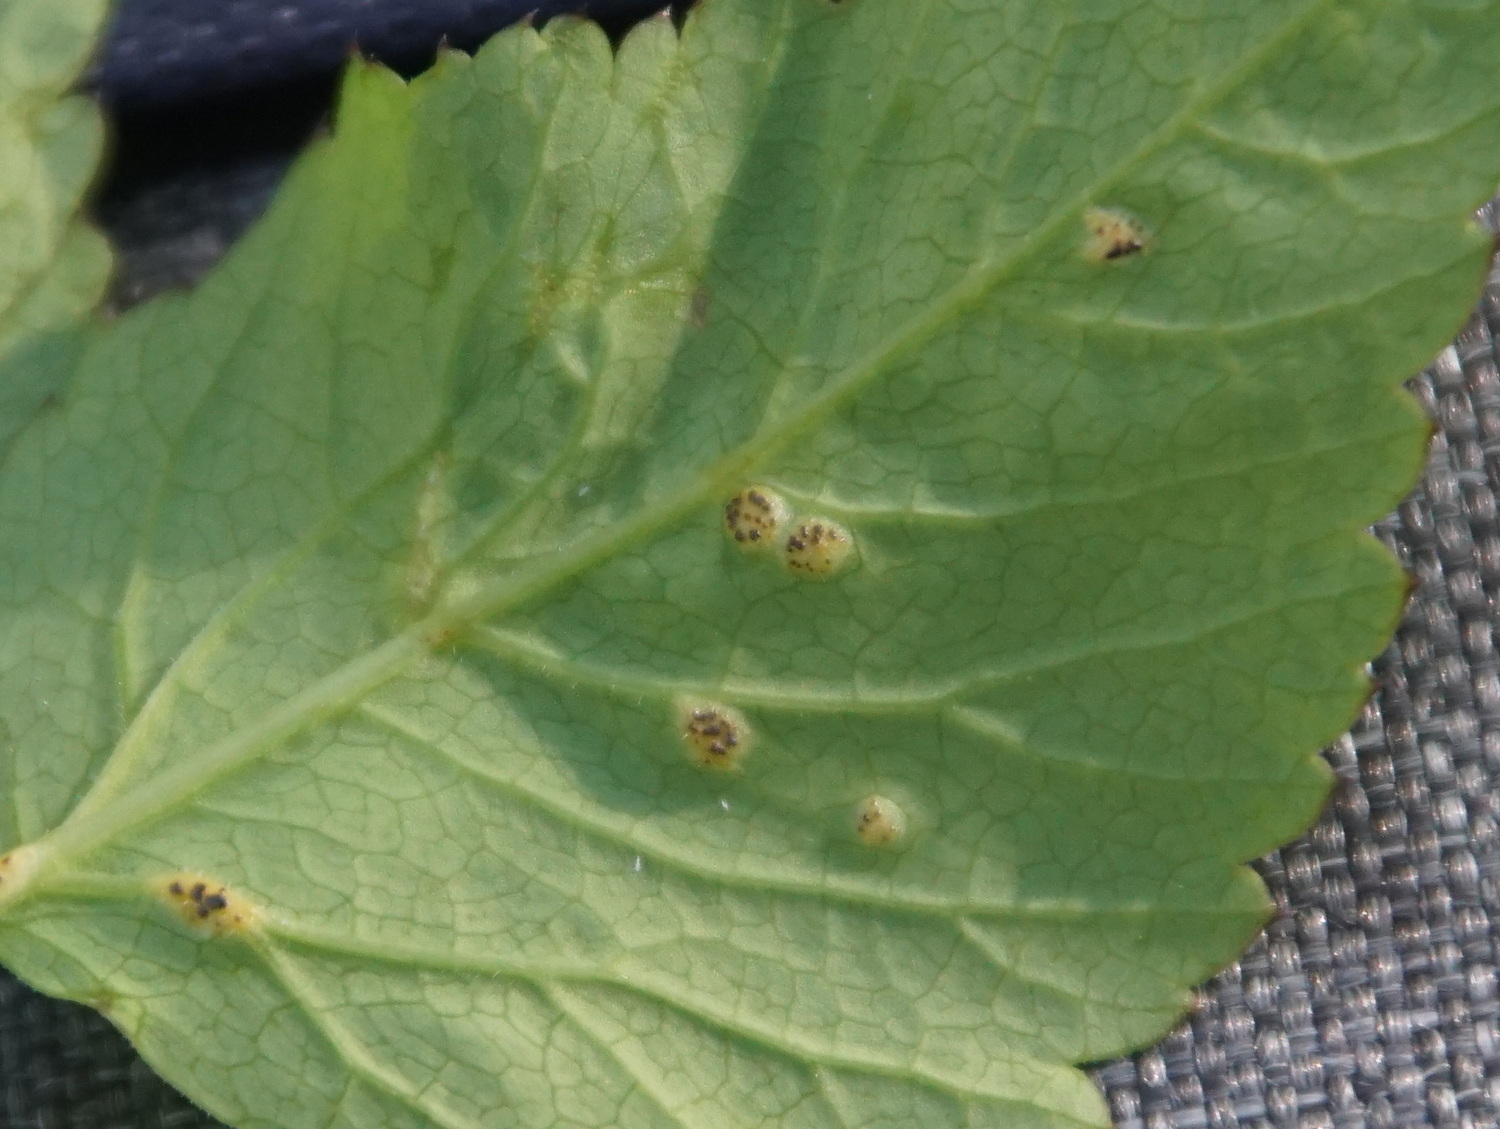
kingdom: Fungi
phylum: Basidiomycota
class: Pucciniomycetes
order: Pucciniales
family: Pucciniaceae
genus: Puccinia
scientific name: Puccinia
